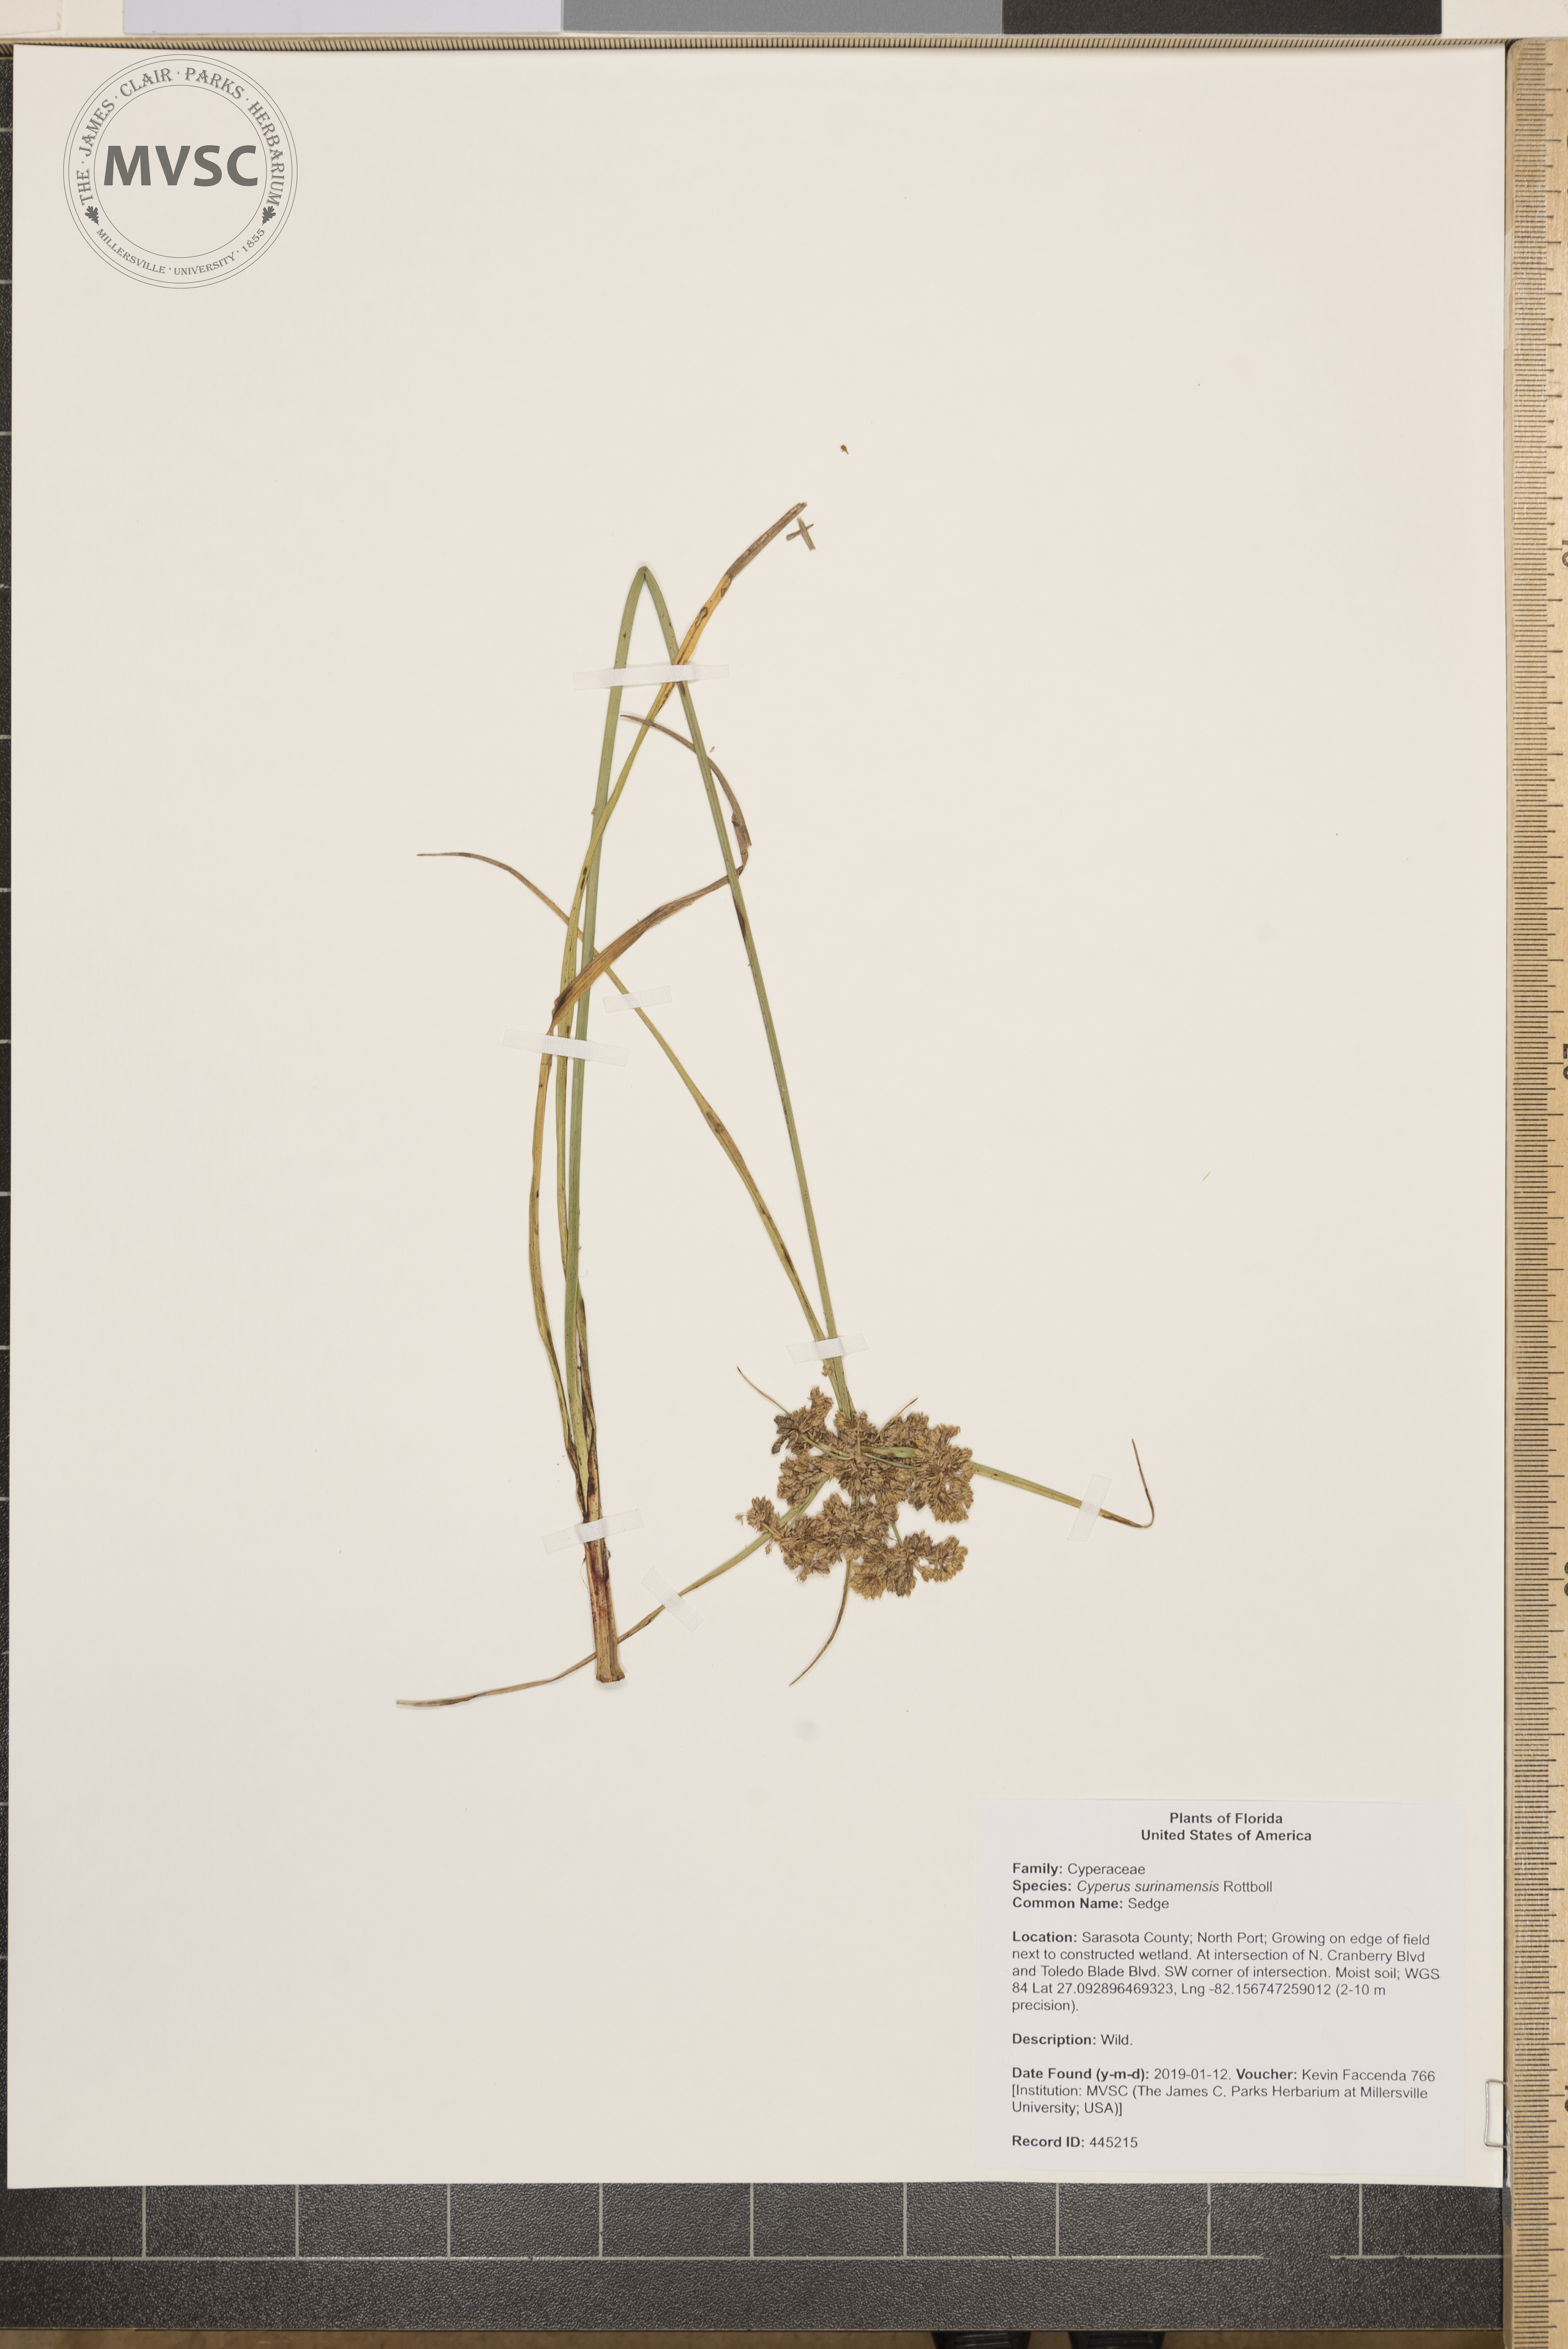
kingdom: Plantae
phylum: Tracheophyta
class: Liliopsida
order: Poales
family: Cyperaceae
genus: Cyperus
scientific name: Cyperus surinamensis
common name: Sedge
